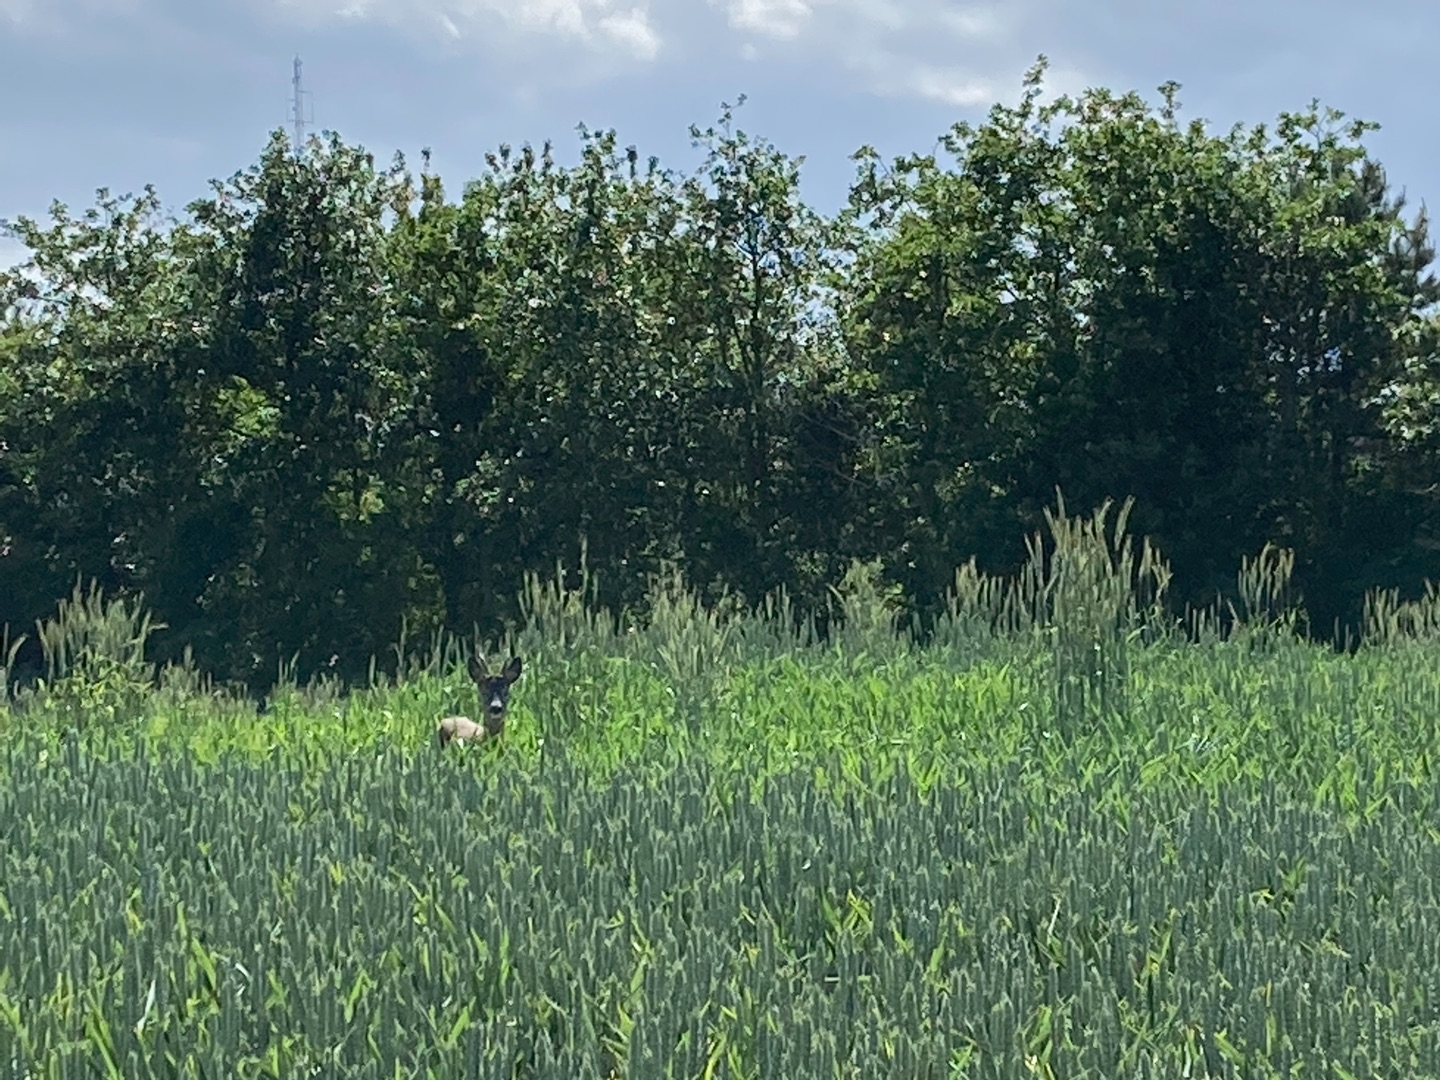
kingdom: Animalia
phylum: Chordata
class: Mammalia
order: Artiodactyla
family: Cervidae
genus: Capreolus
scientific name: Capreolus capreolus
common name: Rådyr
